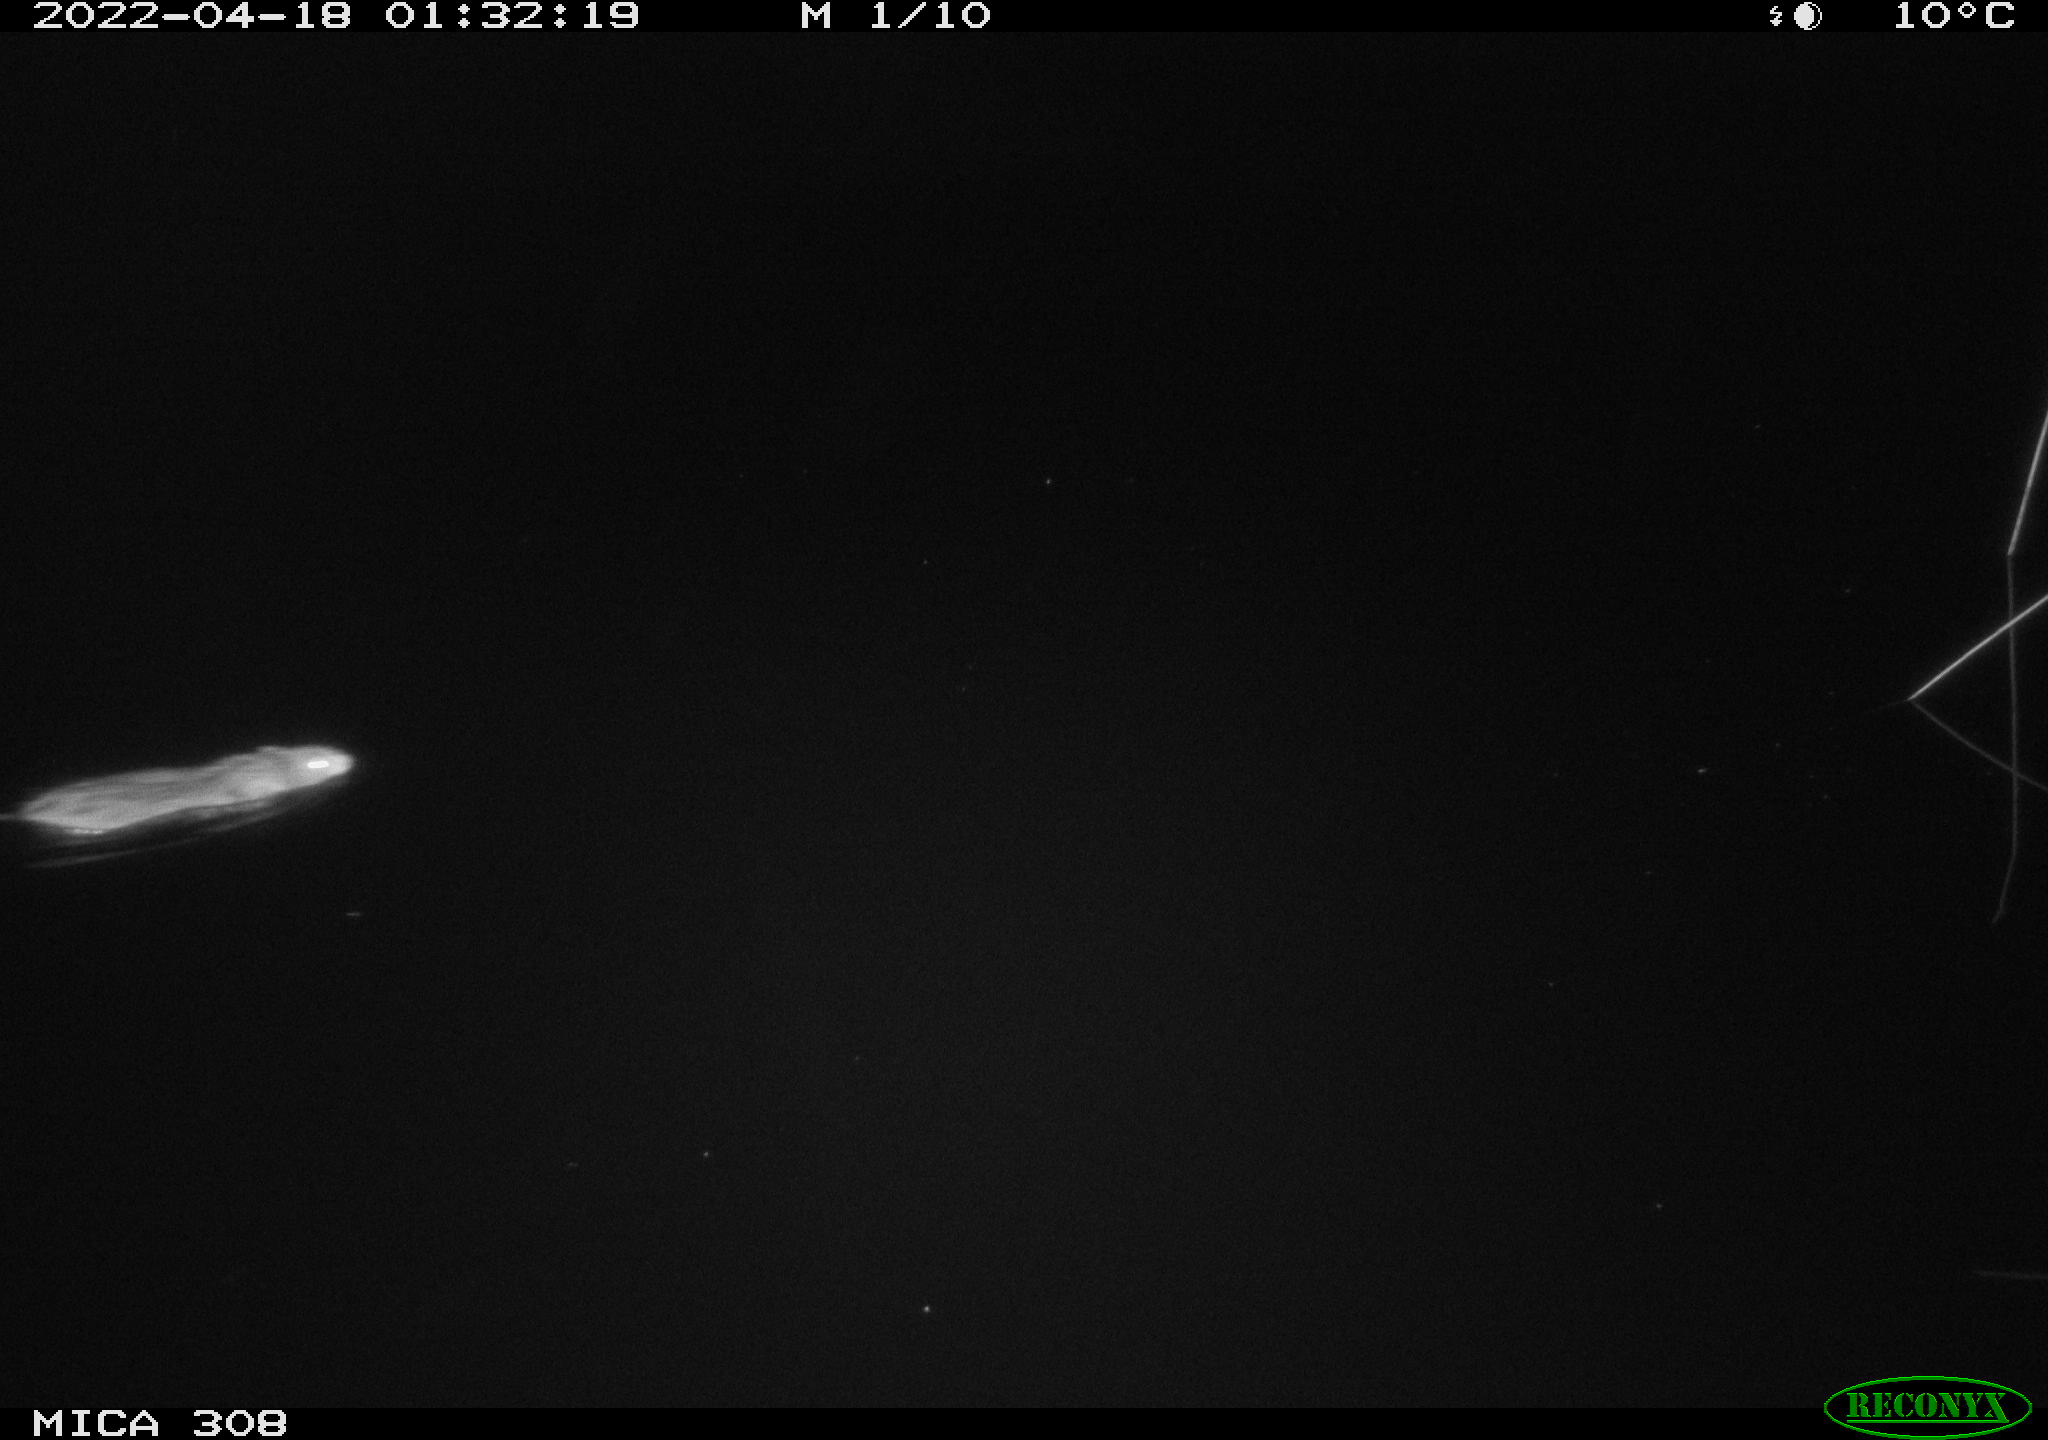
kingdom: Animalia
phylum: Chordata
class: Mammalia
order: Rodentia
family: Cricetidae
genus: Ondatra
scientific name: Ondatra zibethicus
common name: Muskrat
